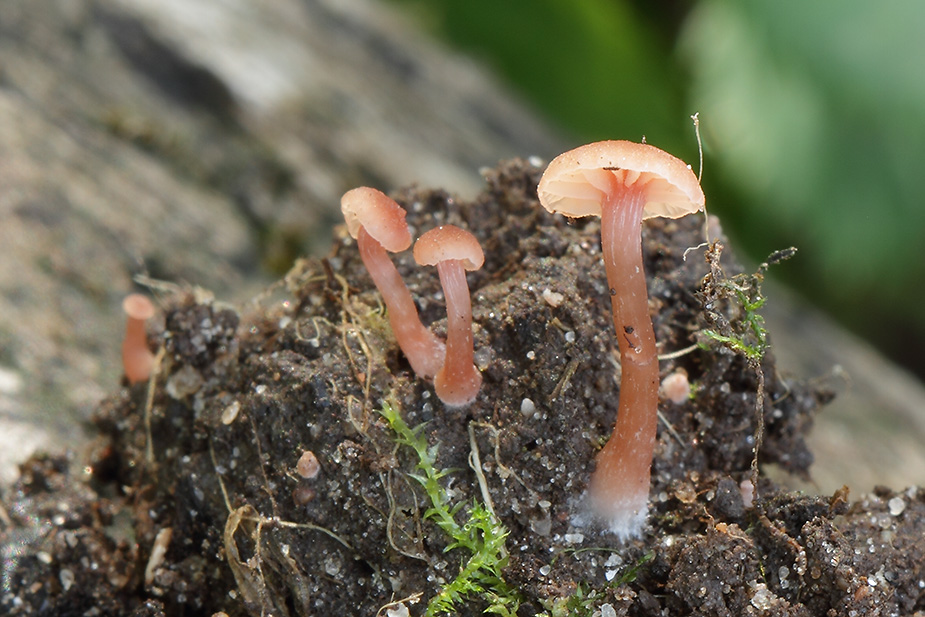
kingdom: Fungi
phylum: Basidiomycota
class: Agaricomycetes
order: Agaricales
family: Hydnangiaceae
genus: Laccaria
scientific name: Laccaria laccata
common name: rød ametysthat
